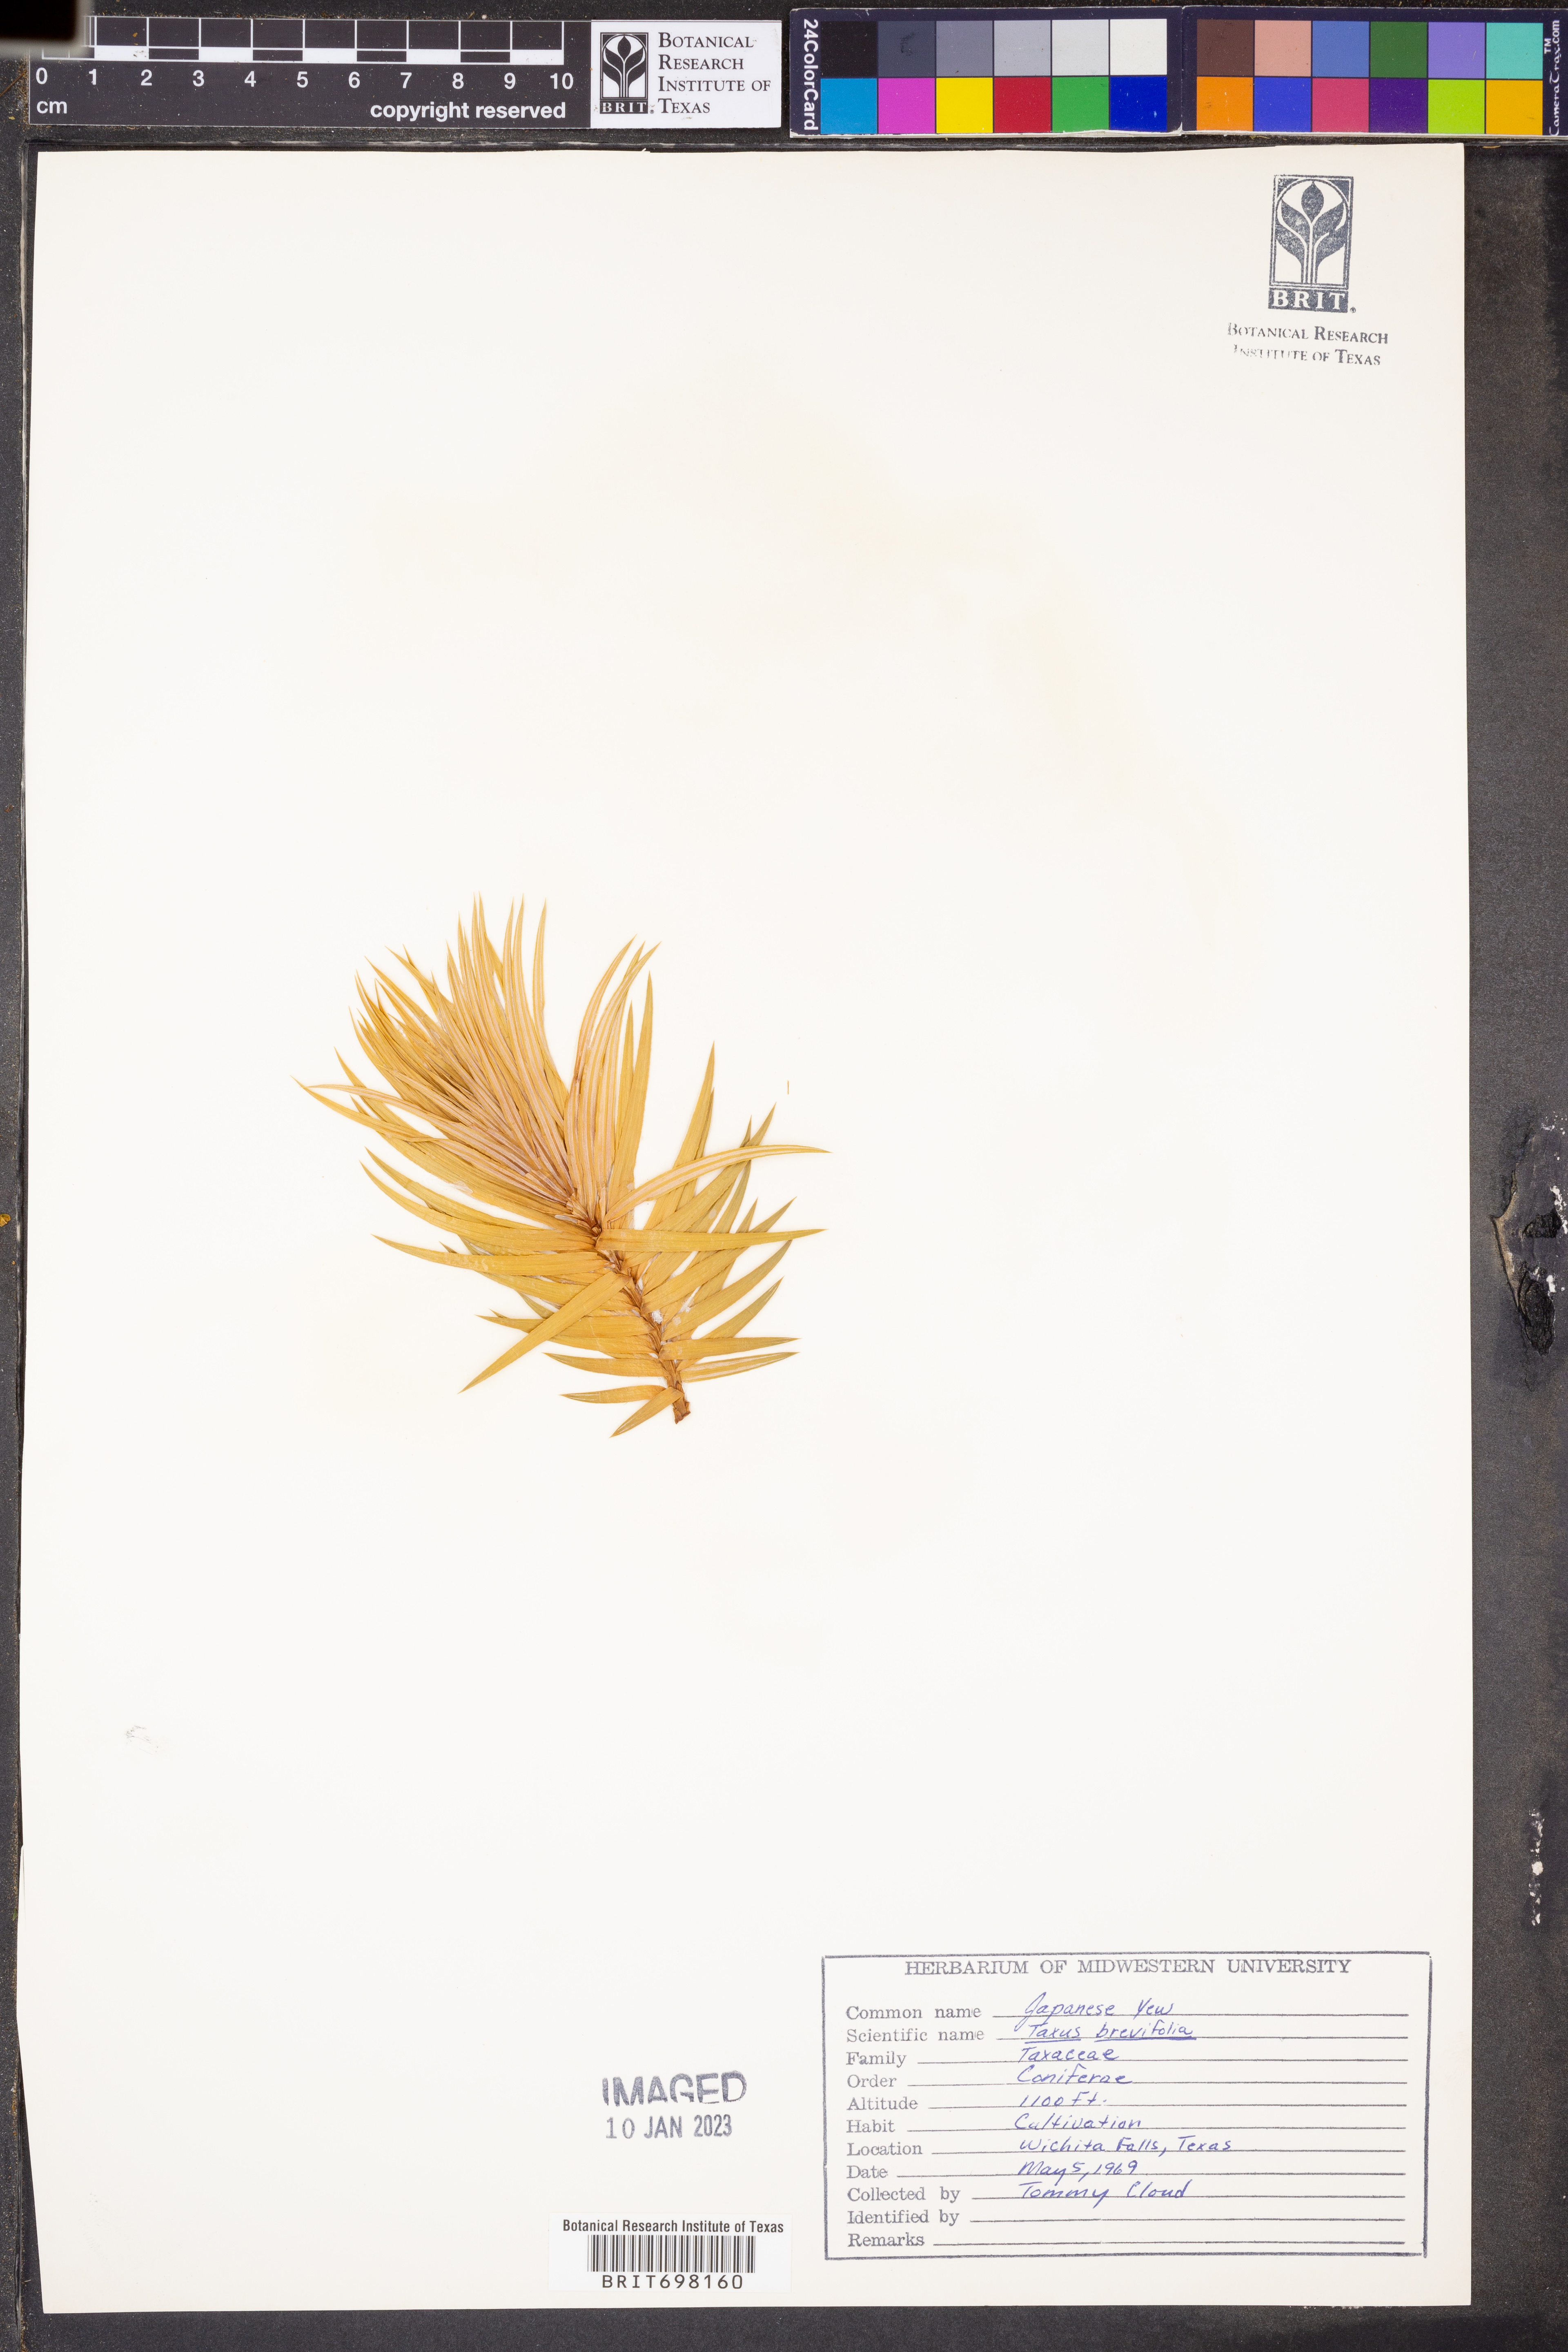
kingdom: Plantae
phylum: Tracheophyta
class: Pinopsida
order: Pinales
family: Taxaceae
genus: Taxus
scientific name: Taxus brevifolia
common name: Pacific yew
